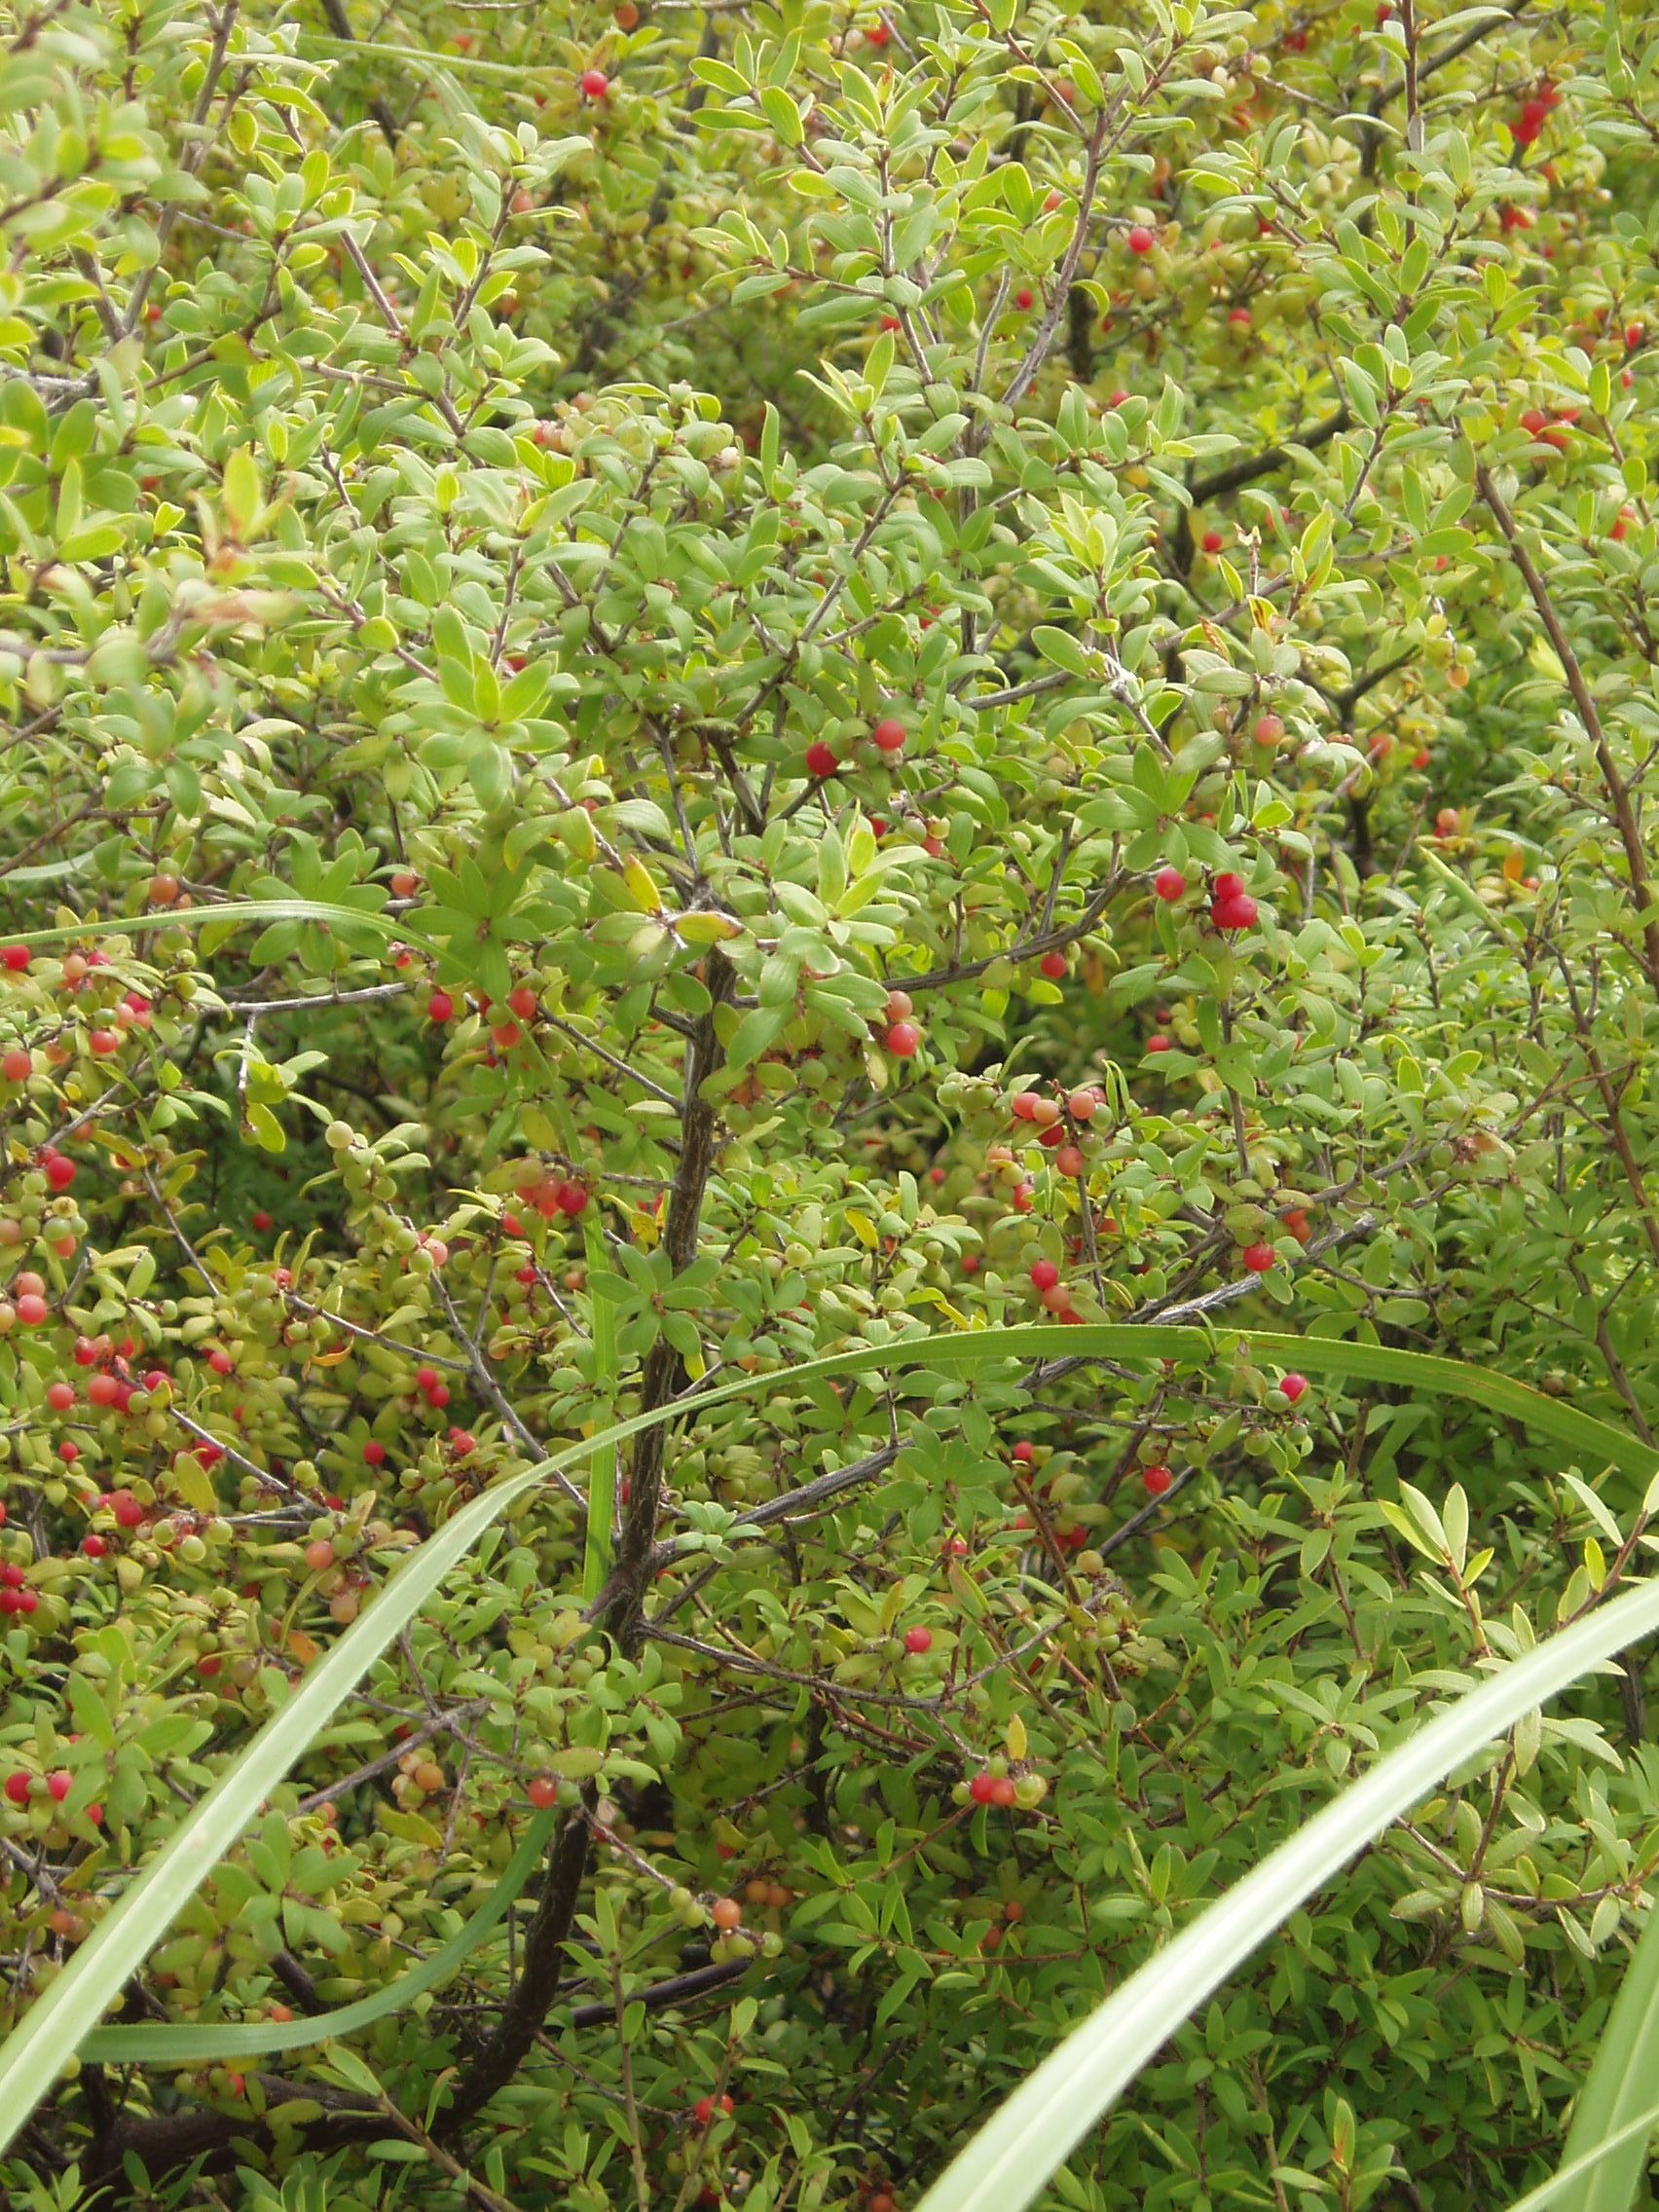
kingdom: Plantae
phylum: Tracheophyta
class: Magnoliopsida
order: Ericales
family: Ericaceae
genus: Leucopogon
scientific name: Leucopogon fasciculatus
